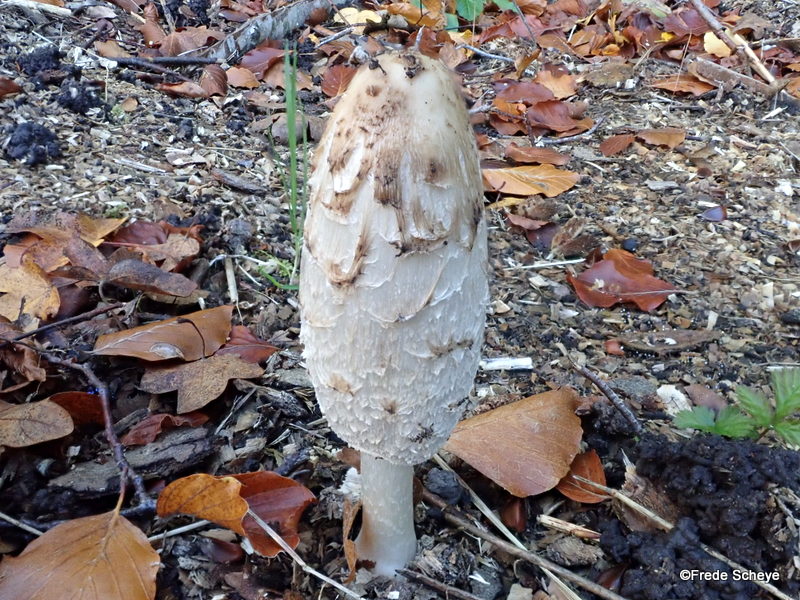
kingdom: Fungi
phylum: Basidiomycota
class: Agaricomycetes
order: Agaricales
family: Agaricaceae
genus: Coprinus
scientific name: Coprinus comatus
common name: stor parykhat
